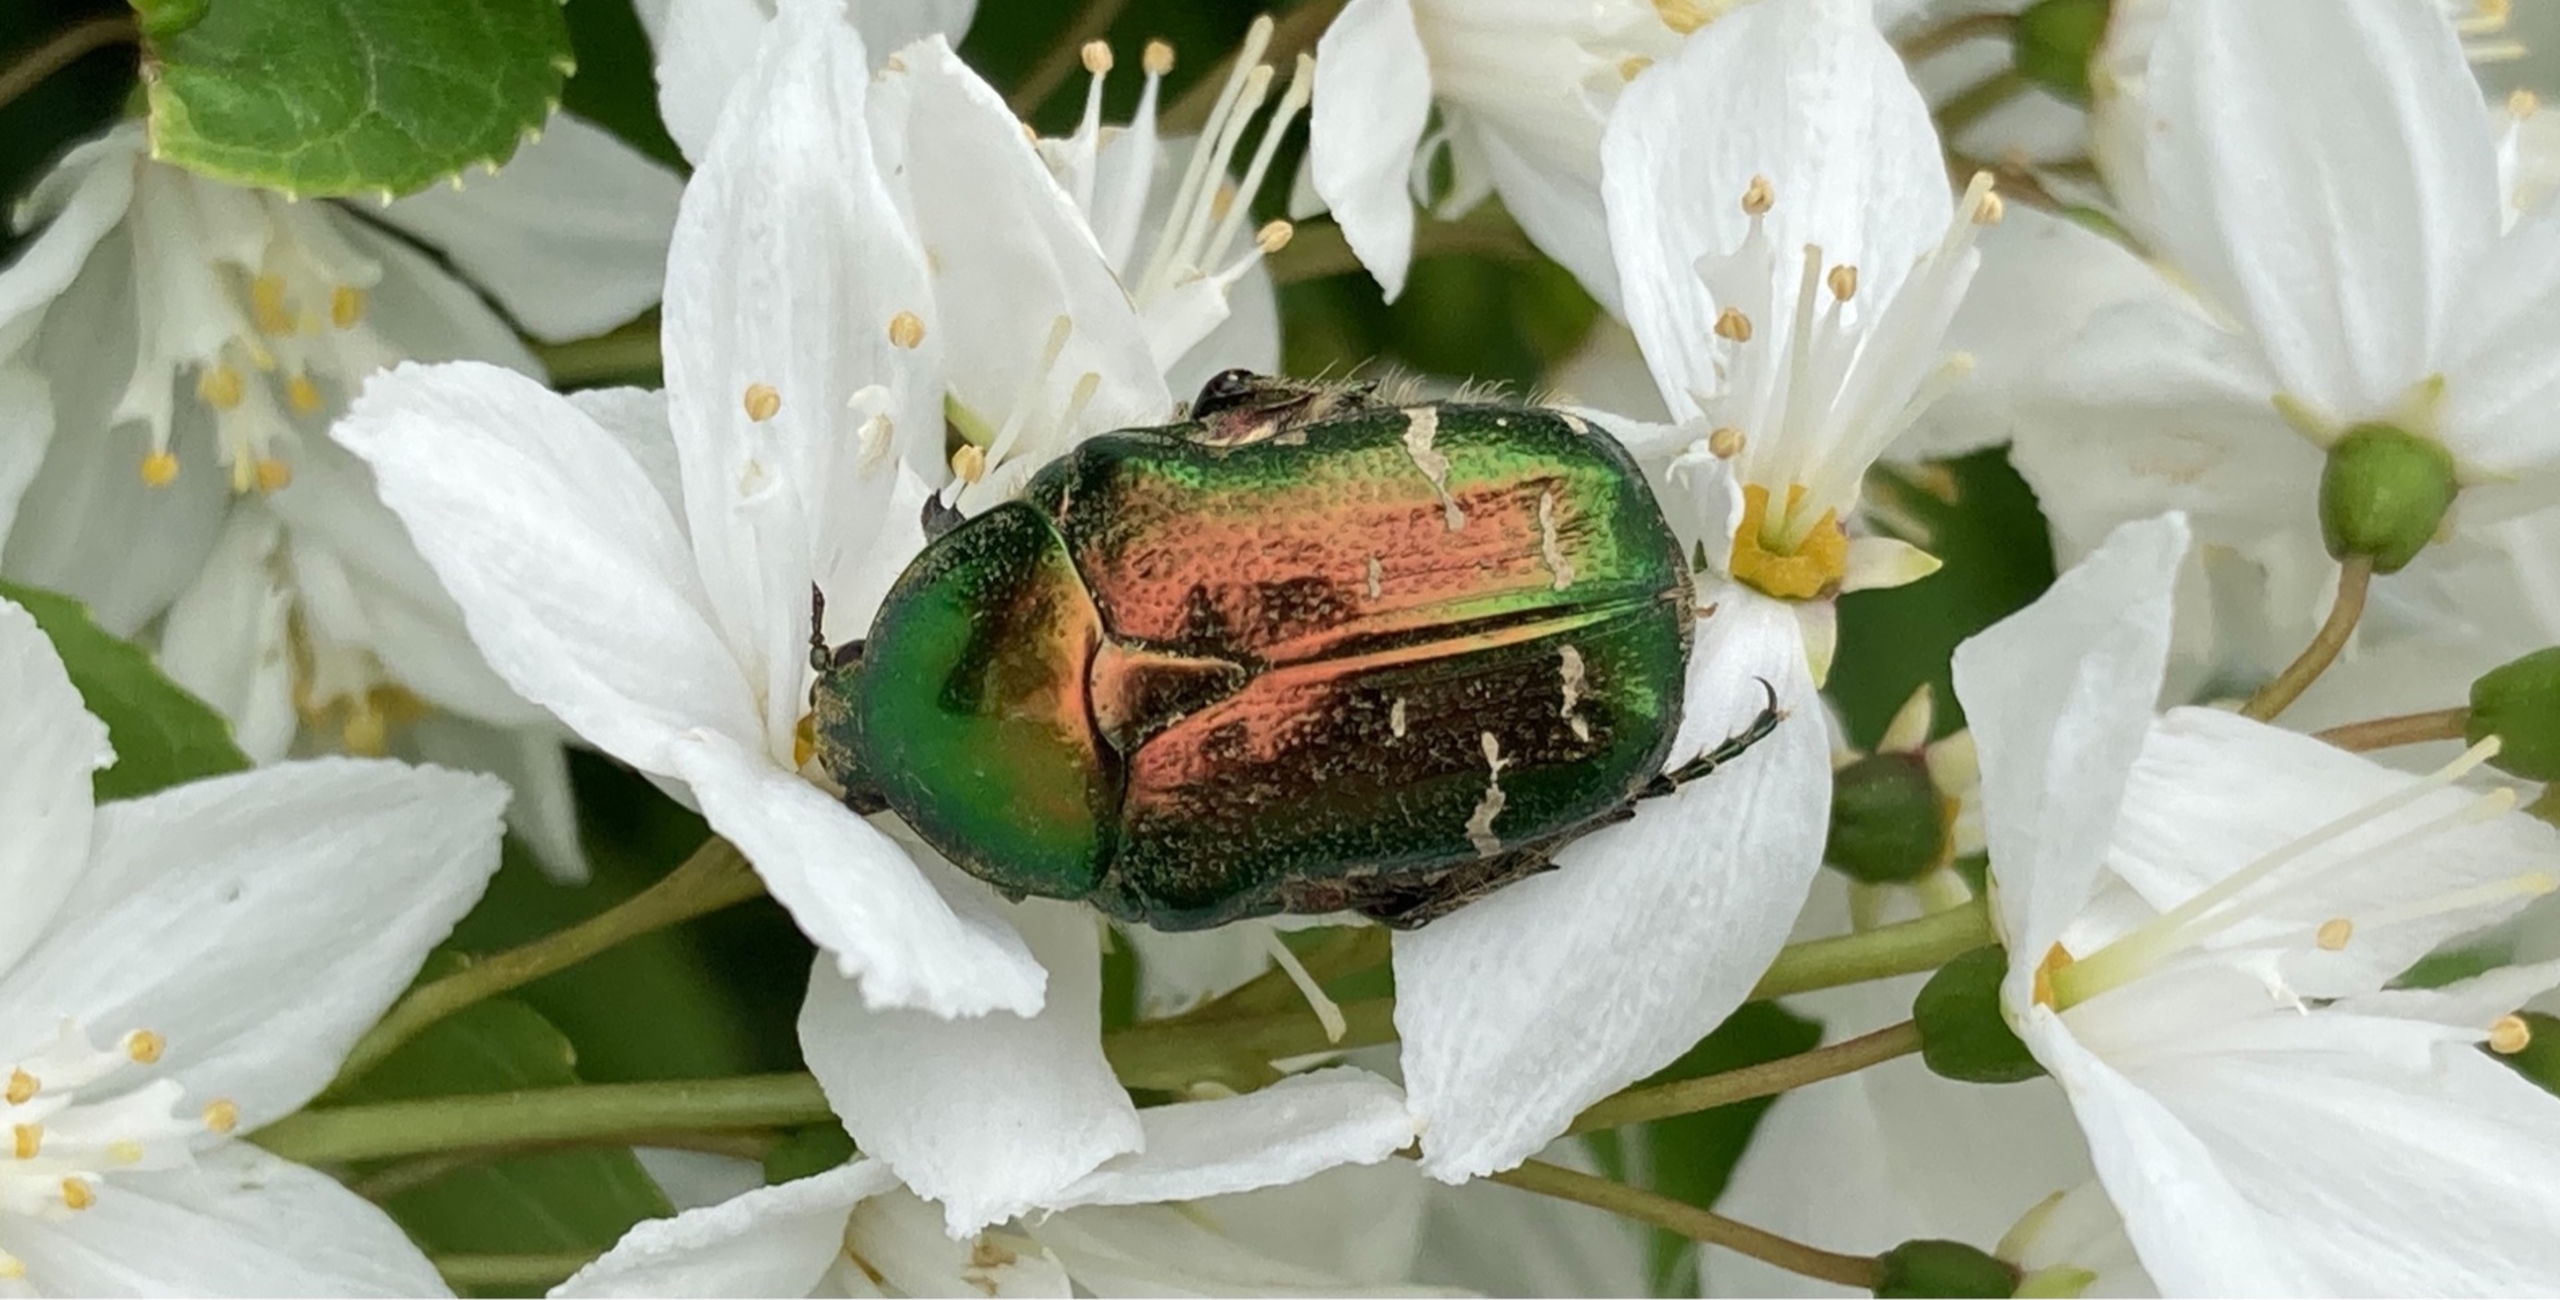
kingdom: Animalia
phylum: Arthropoda
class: Insecta
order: Coleoptera
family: Scarabaeidae
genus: Protaetia
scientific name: Protaetia cuprea
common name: Kobberguldbasse
